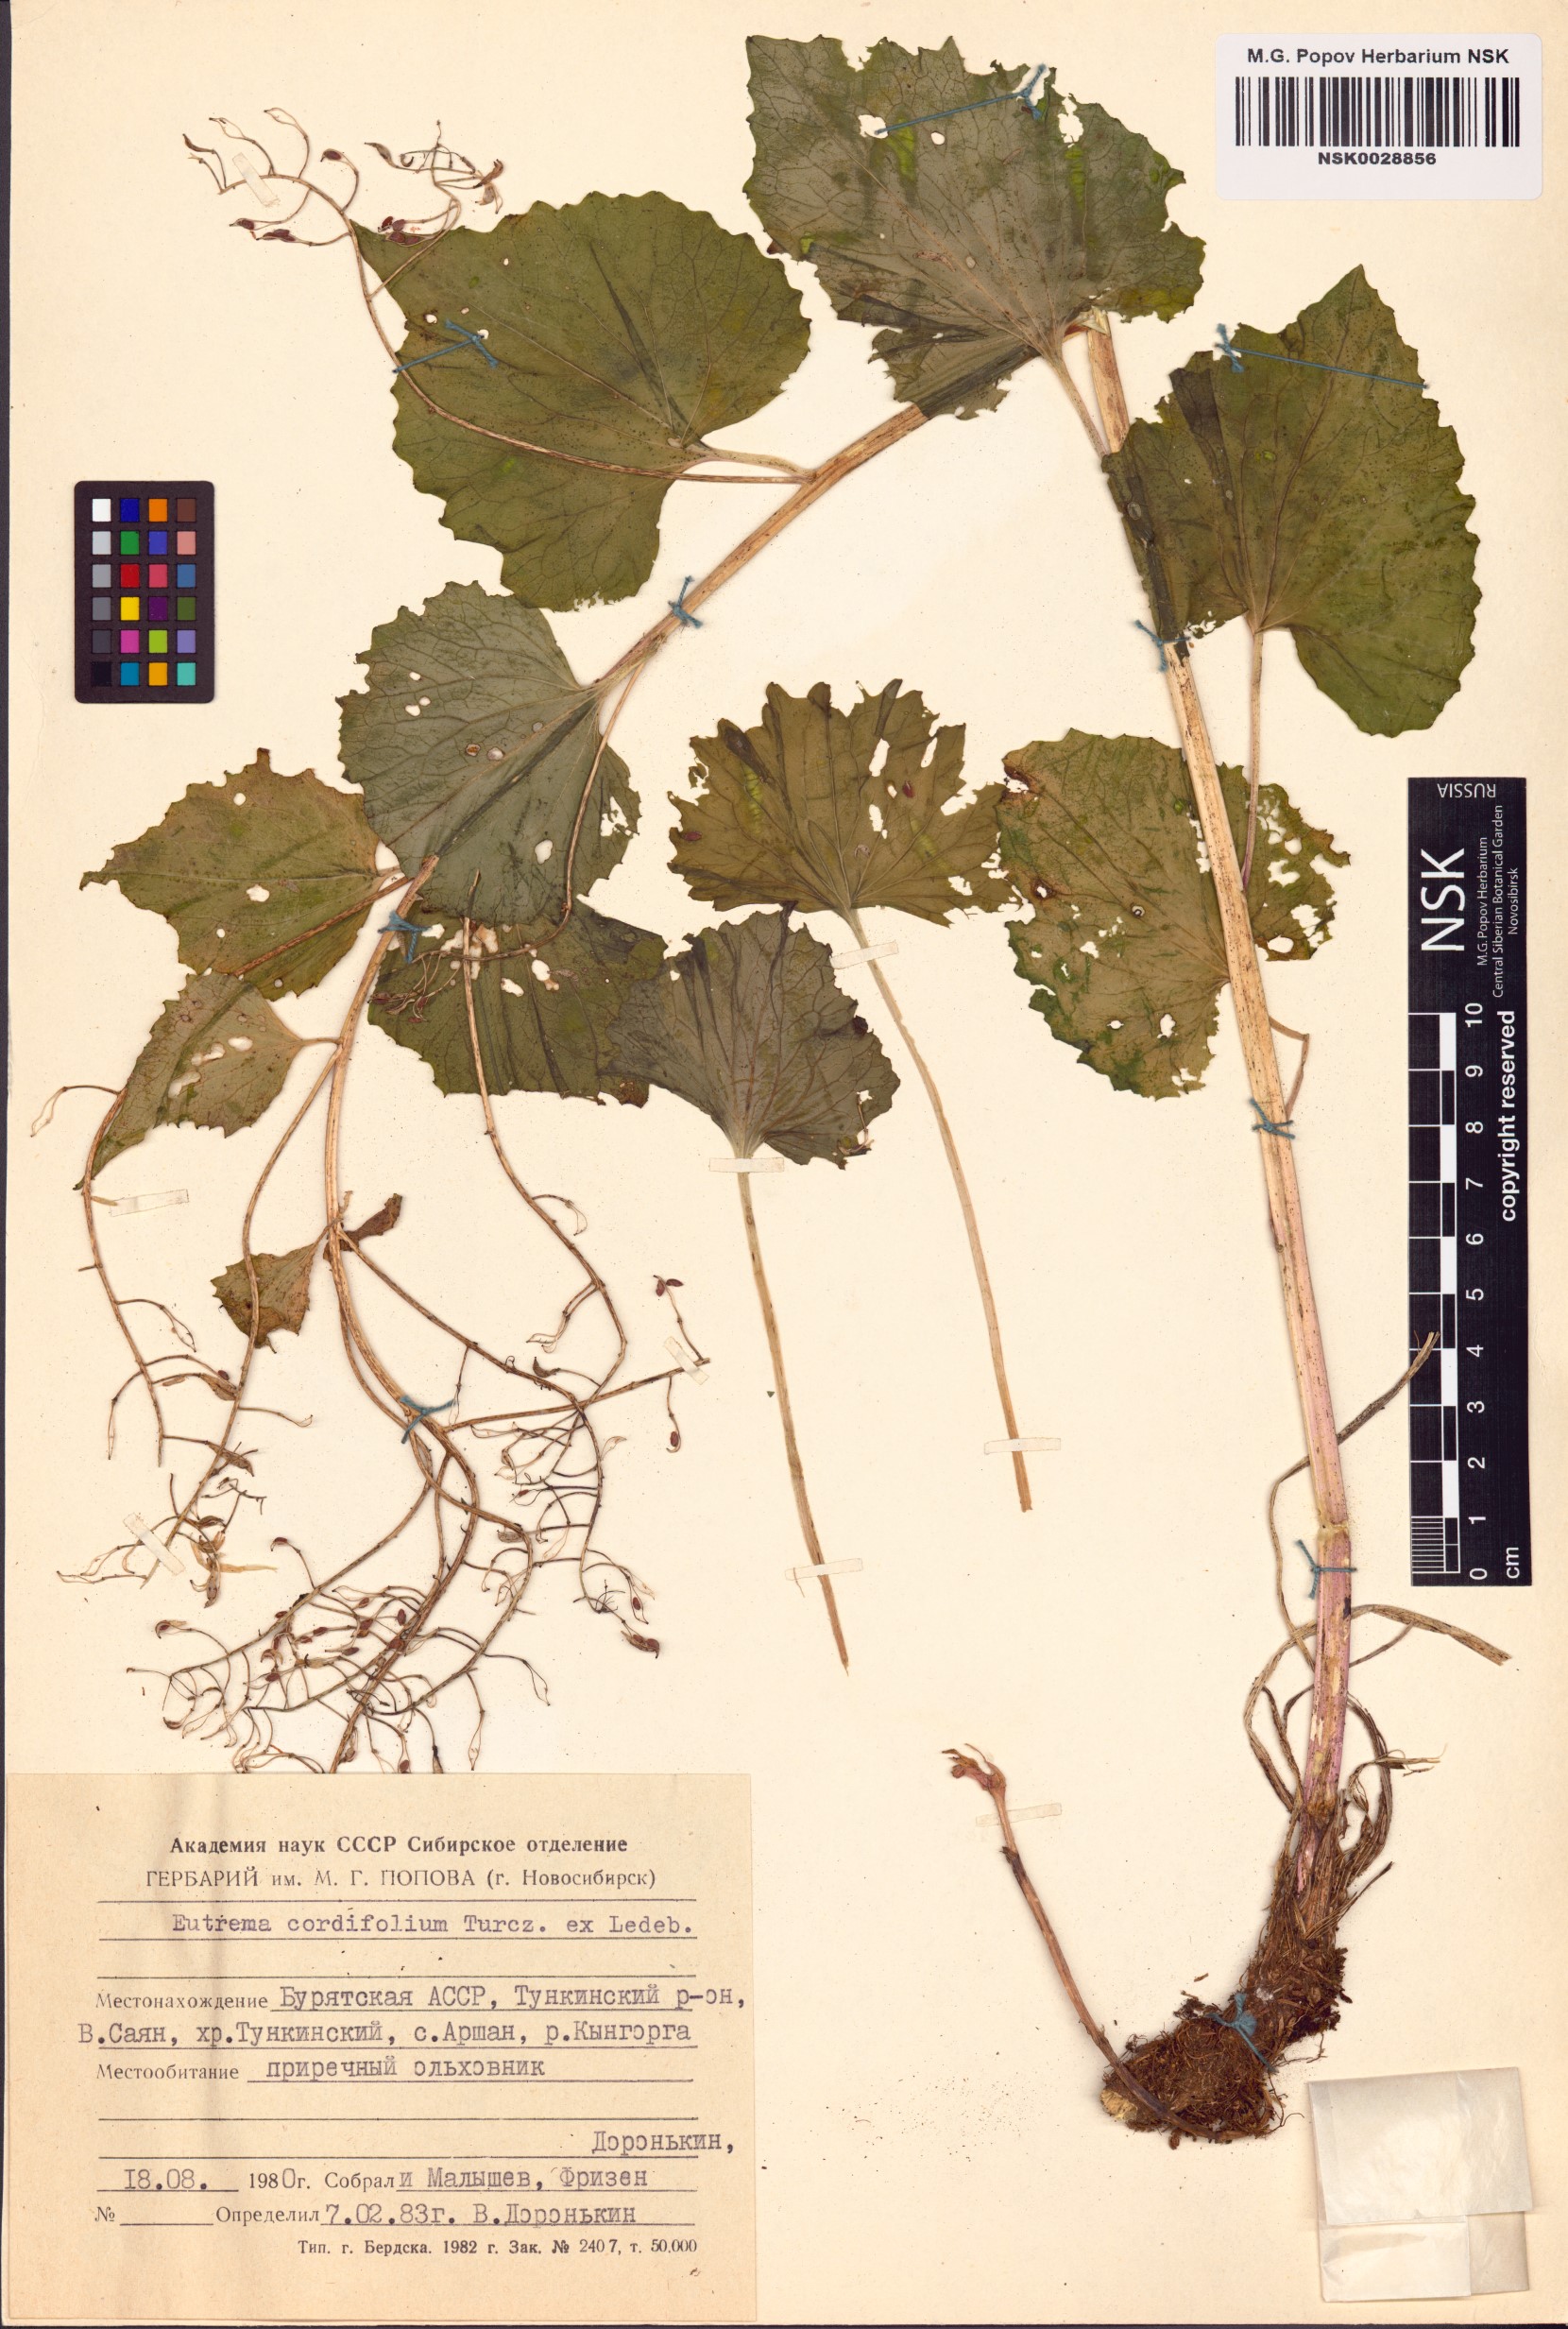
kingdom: Plantae
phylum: Tracheophyta
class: Magnoliopsida
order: Brassicales
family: Brassicaceae
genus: Eutrema
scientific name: Eutrema cordifolium
